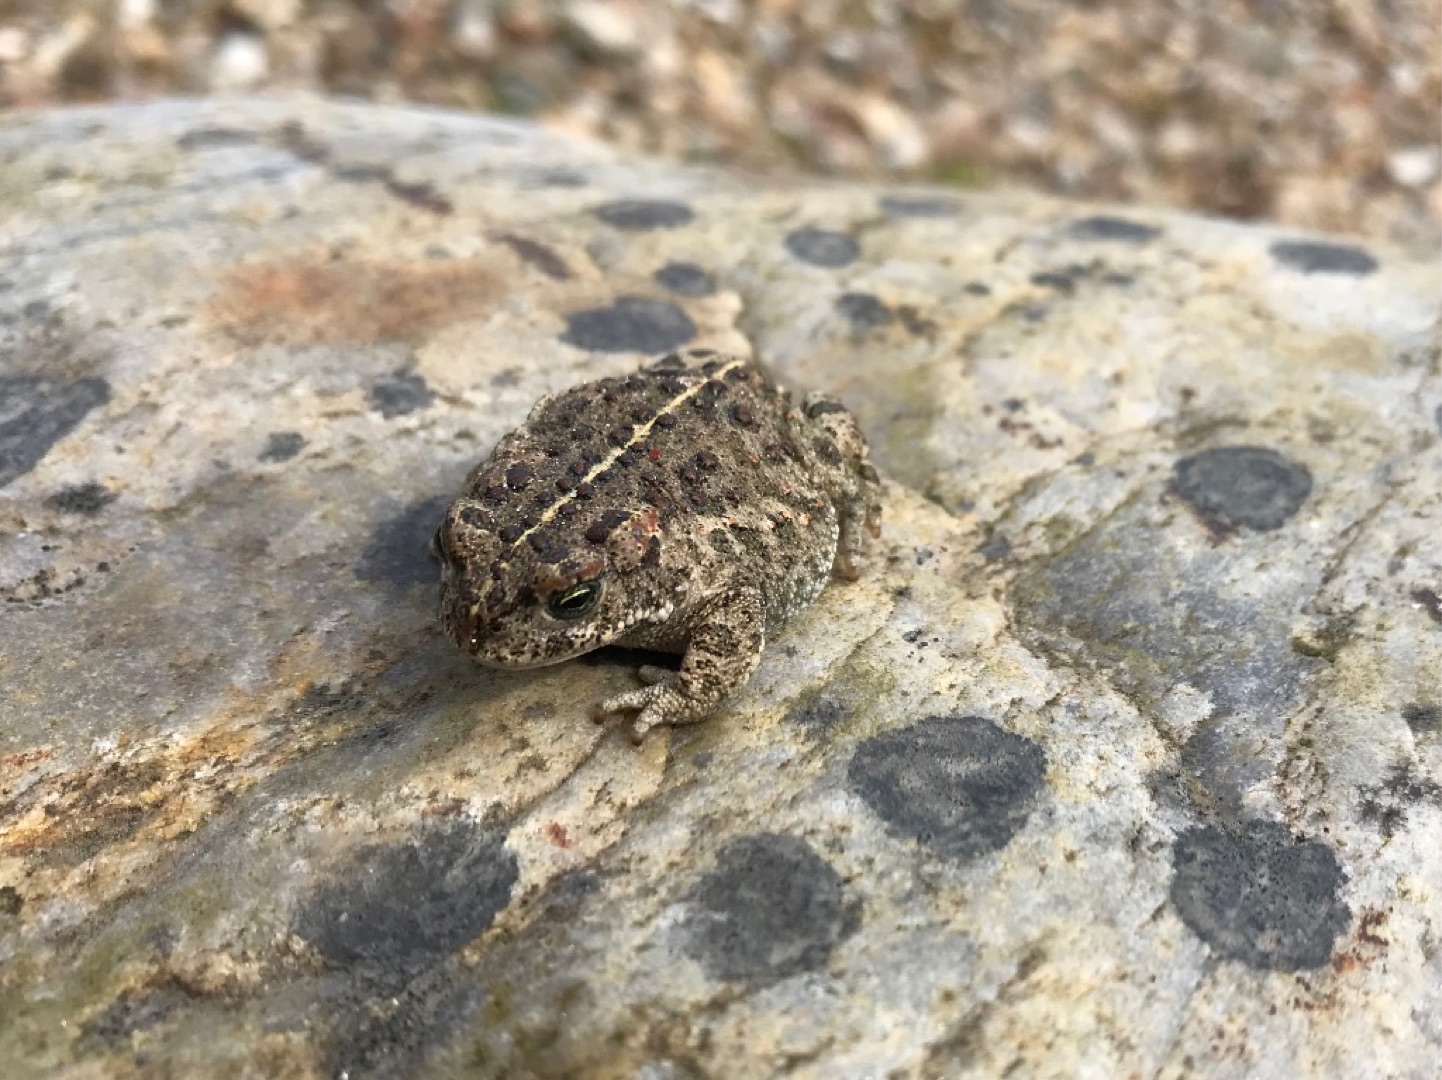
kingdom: Animalia
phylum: Chordata
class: Amphibia
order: Anura
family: Bufonidae
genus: Epidalea
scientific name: Epidalea calamita
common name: Strandtudse
